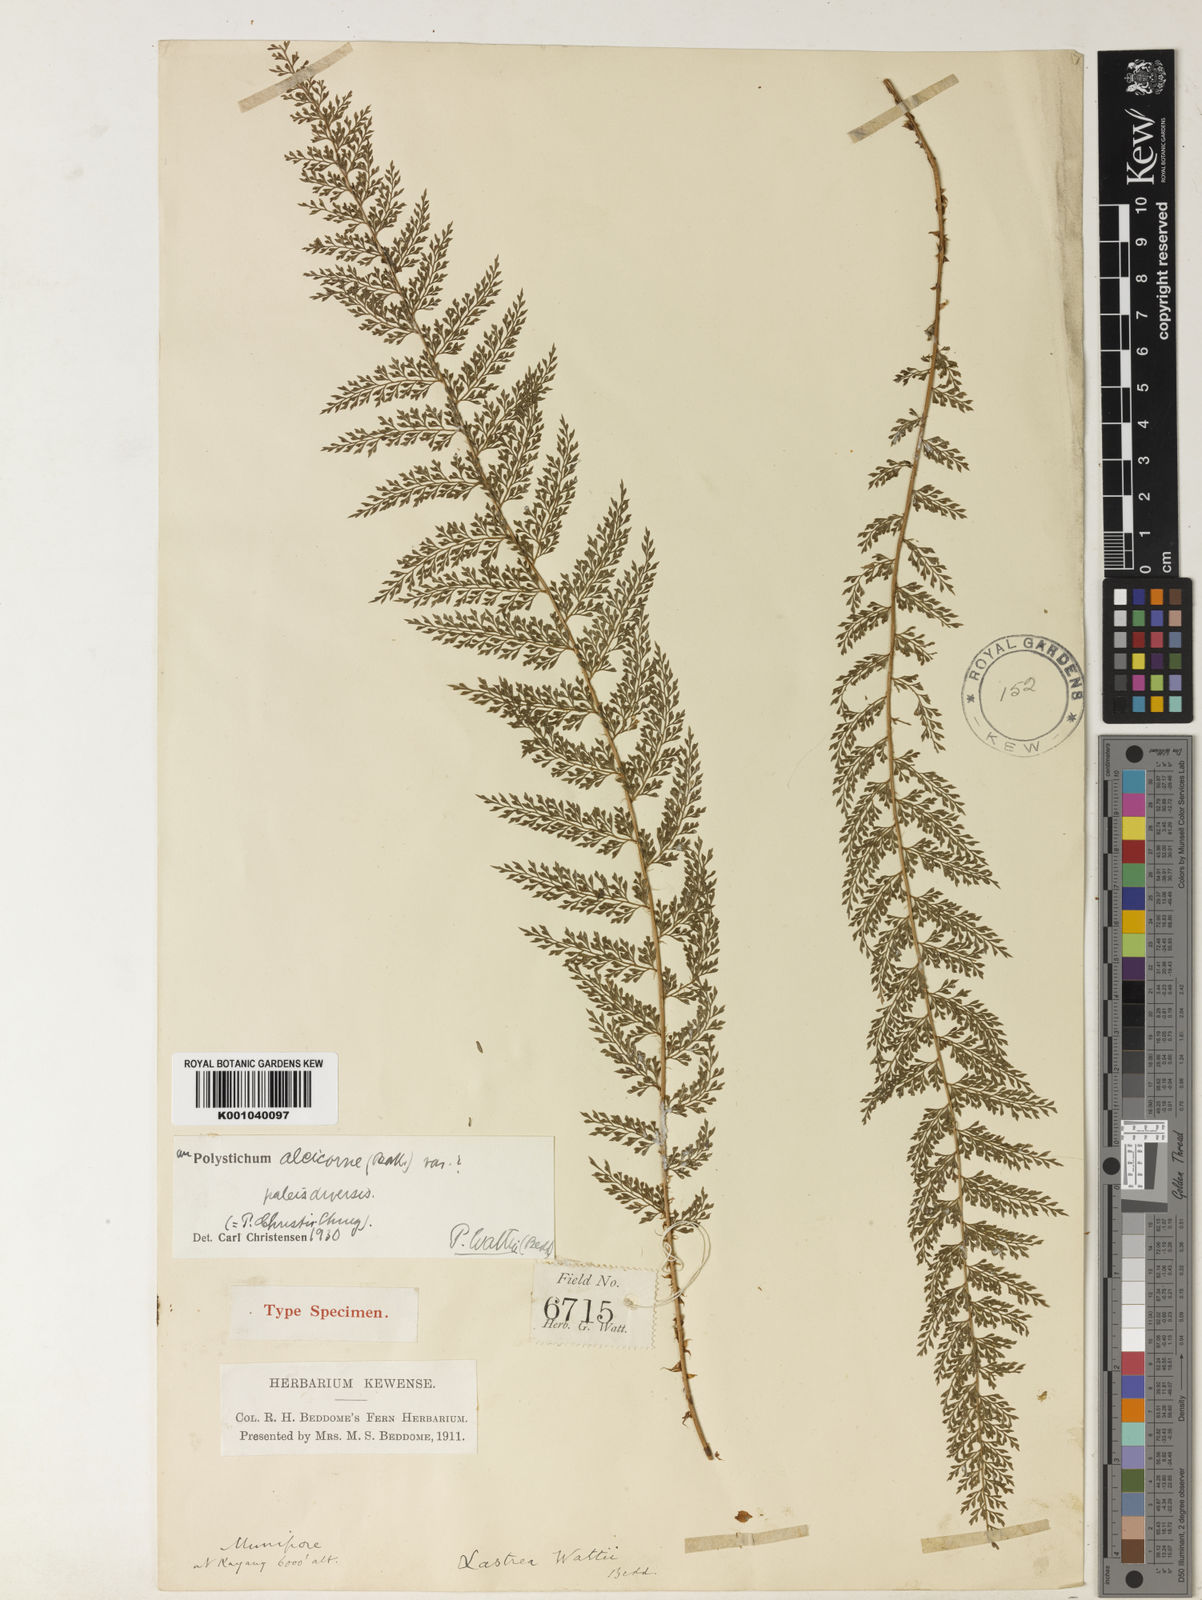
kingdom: Plantae
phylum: Tracheophyta
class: Polypodiopsida
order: Polypodiales
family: Dryopteridaceae
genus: Polystichum
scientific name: Polystichum wattii
